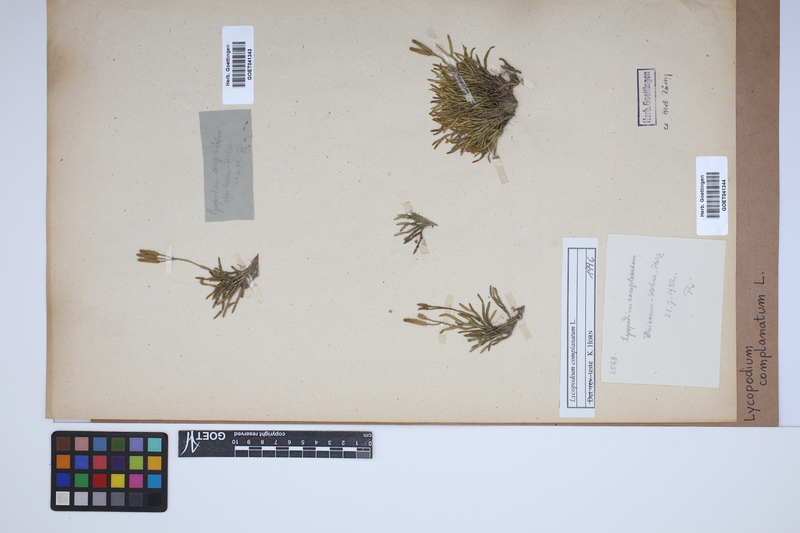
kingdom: Plantae
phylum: Tracheophyta
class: Lycopodiopsida
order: Lycopodiales
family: Lycopodiaceae
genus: Diphasiastrum
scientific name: Diphasiastrum complanatum
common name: Northern running-pine
